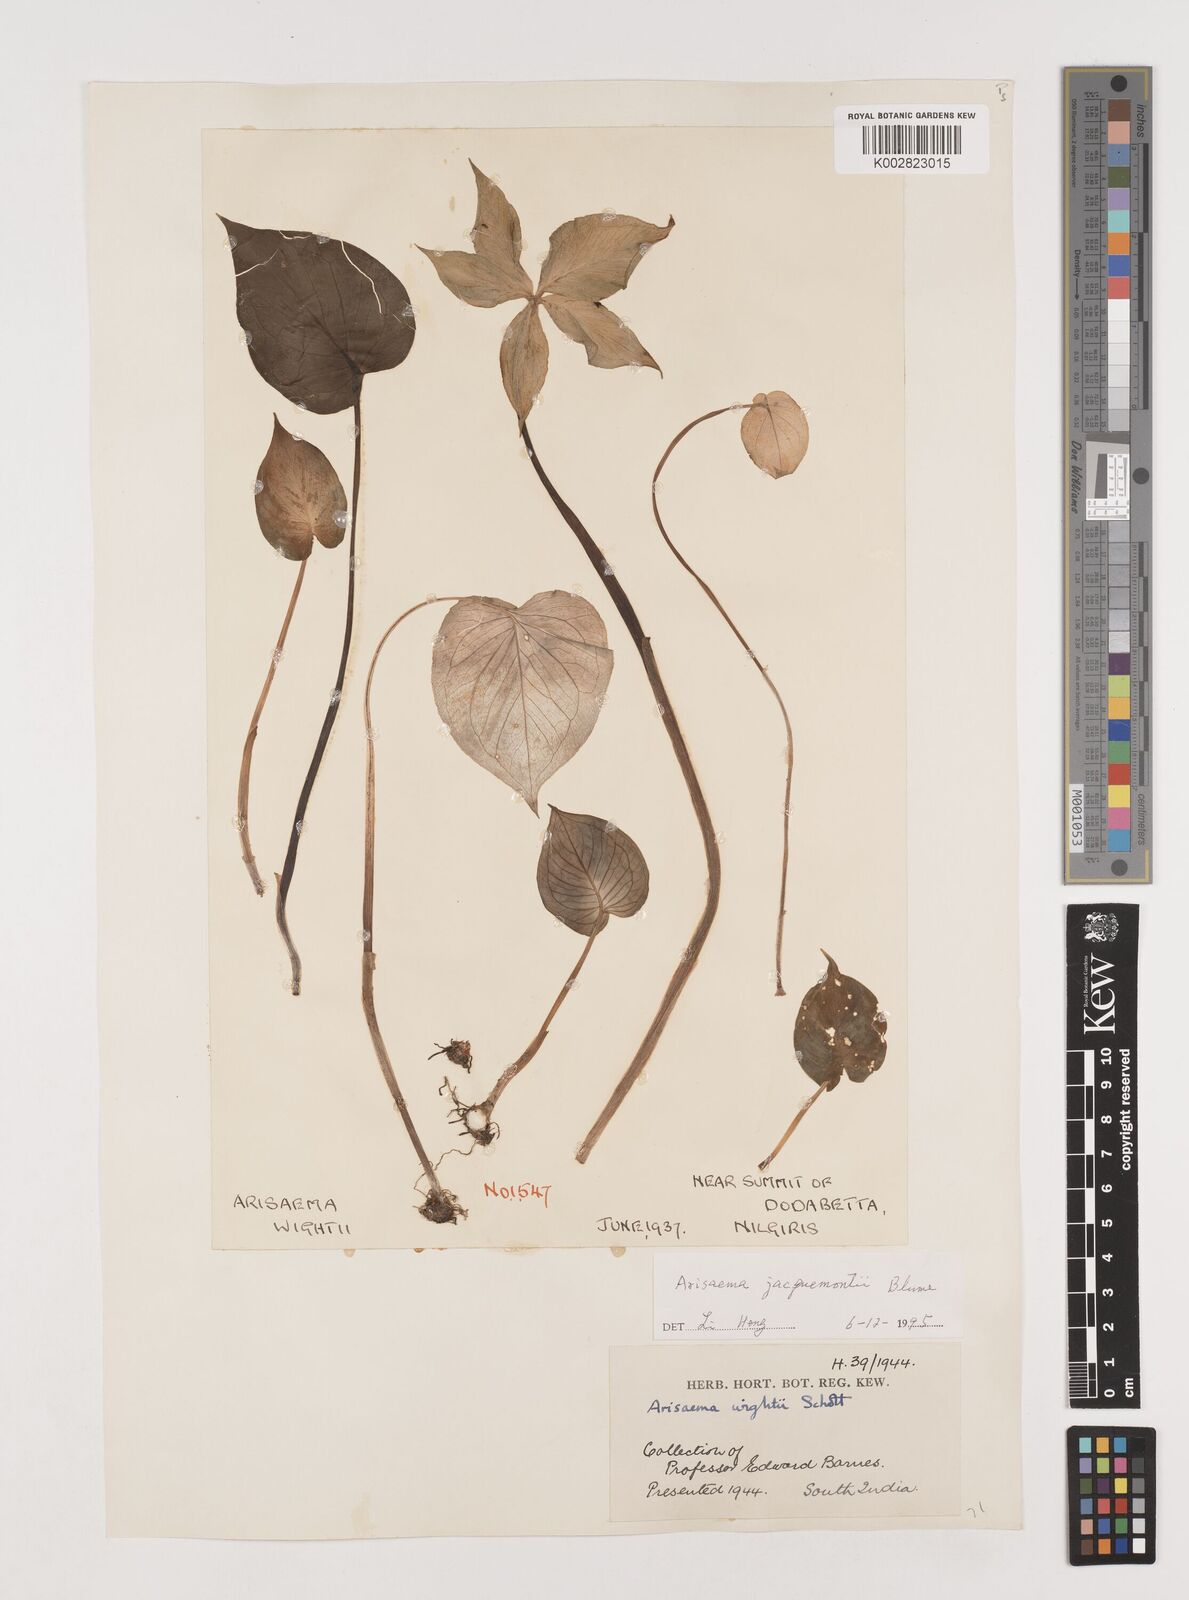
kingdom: Plantae
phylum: Tracheophyta
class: Liliopsida
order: Alismatales
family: Araceae
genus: Arisaema
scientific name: Arisaema jacquemontii
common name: Jacquemont's cobra-lily
